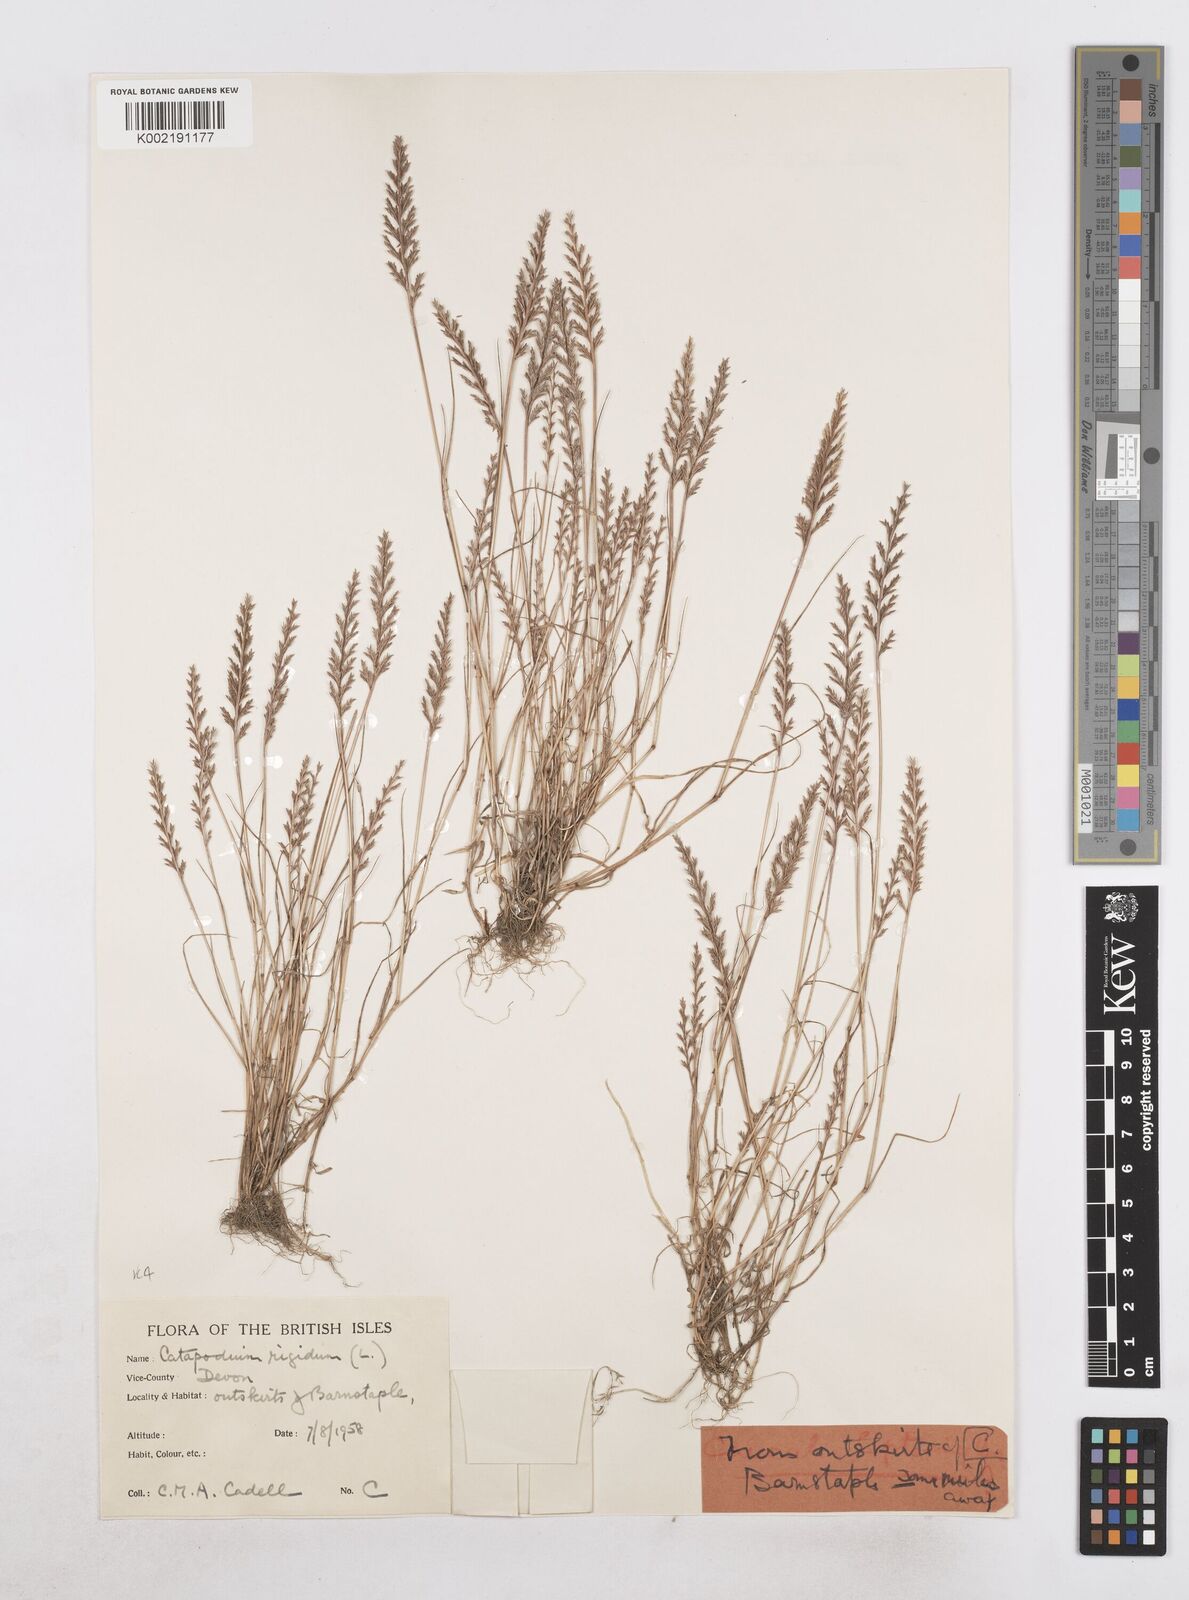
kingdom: Plantae
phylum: Tracheophyta
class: Liliopsida
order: Poales
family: Poaceae
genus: Catapodium
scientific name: Catapodium rigidum
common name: Fern-grass
